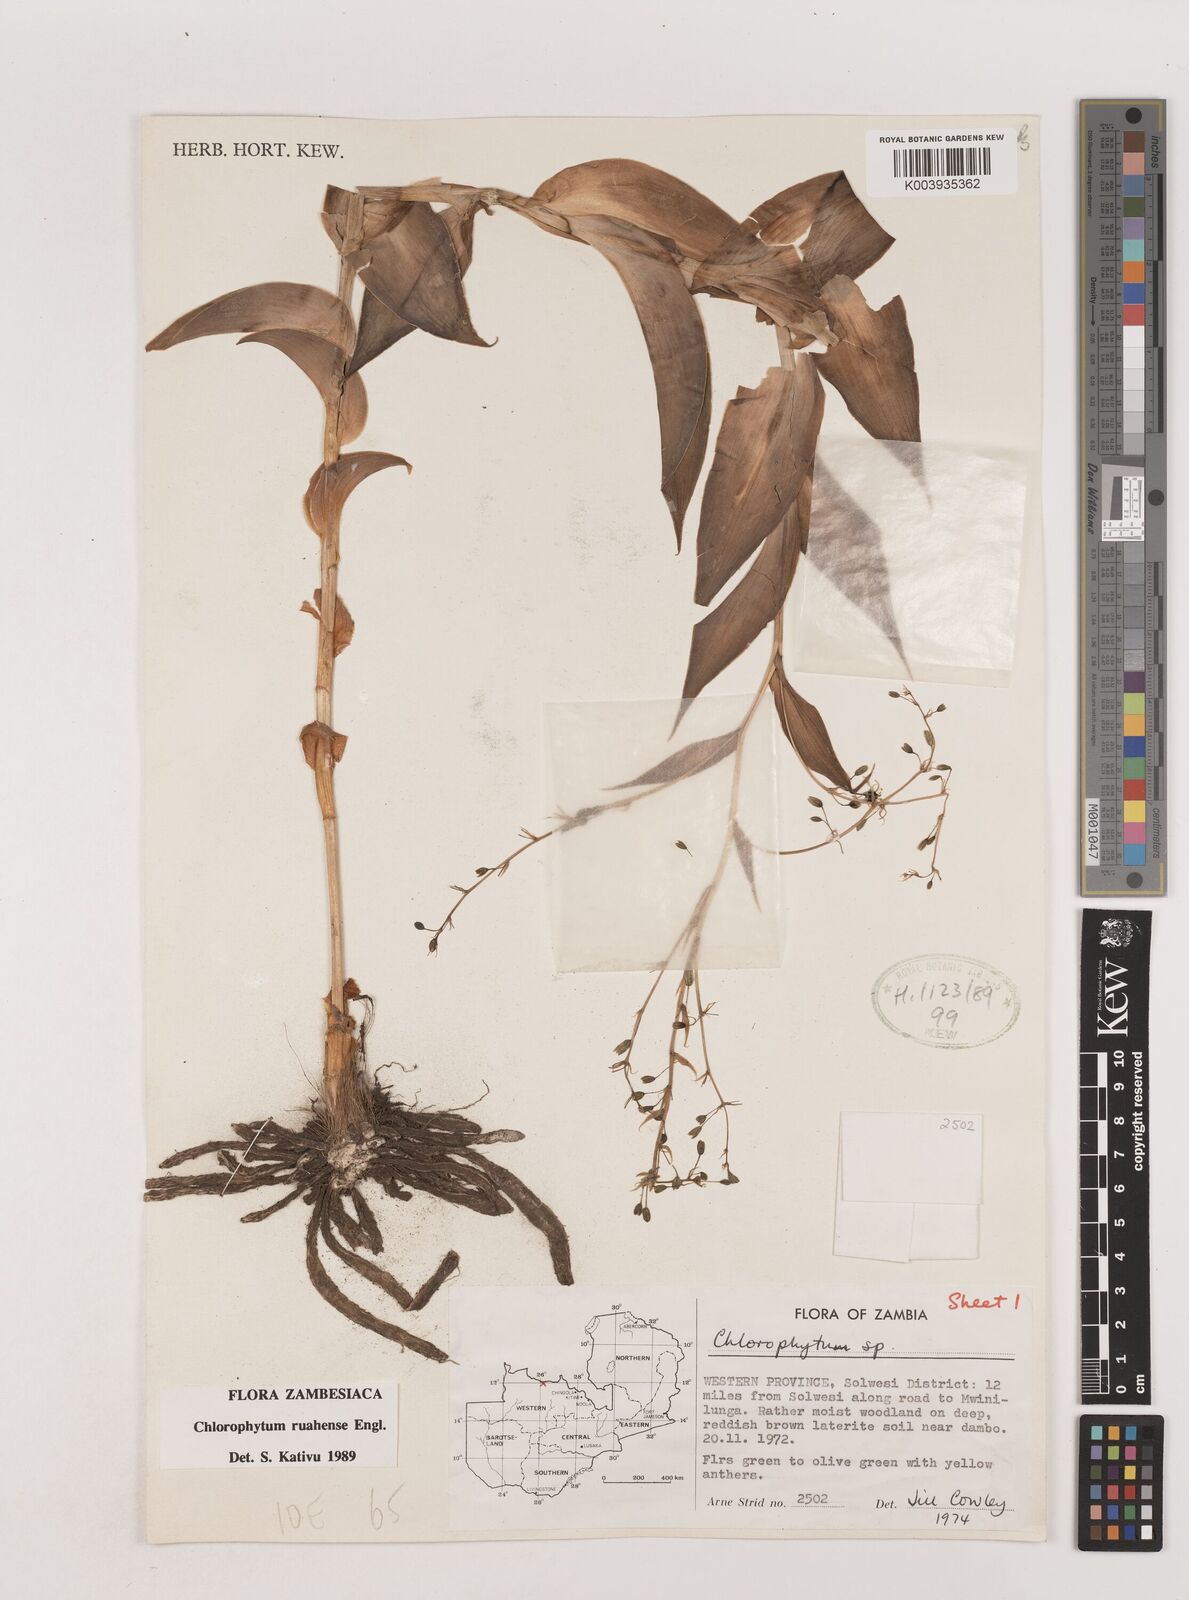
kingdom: Plantae
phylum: Tracheophyta
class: Liliopsida
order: Asparagales
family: Asparagaceae
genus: Chlorophytum
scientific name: Chlorophytum ruahense
